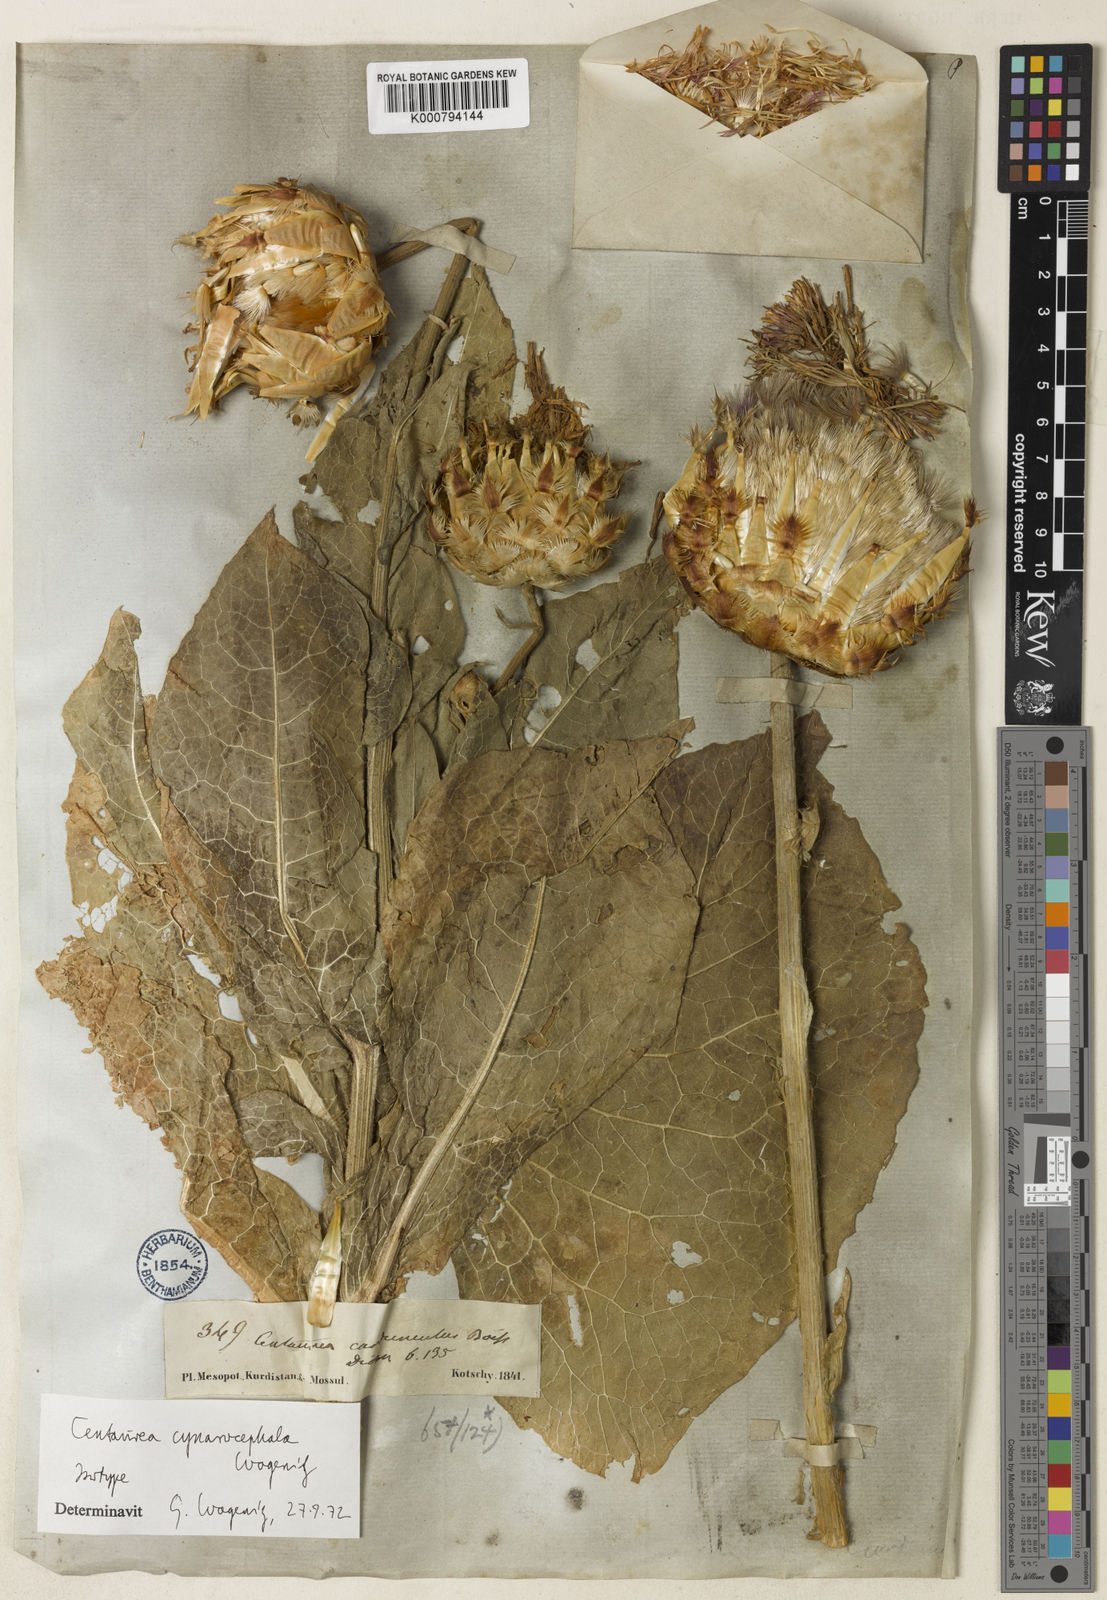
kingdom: Plantae
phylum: Tracheophyta
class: Magnoliopsida
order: Asterales
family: Asteraceae
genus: Centaurea
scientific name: Centaurea regia
